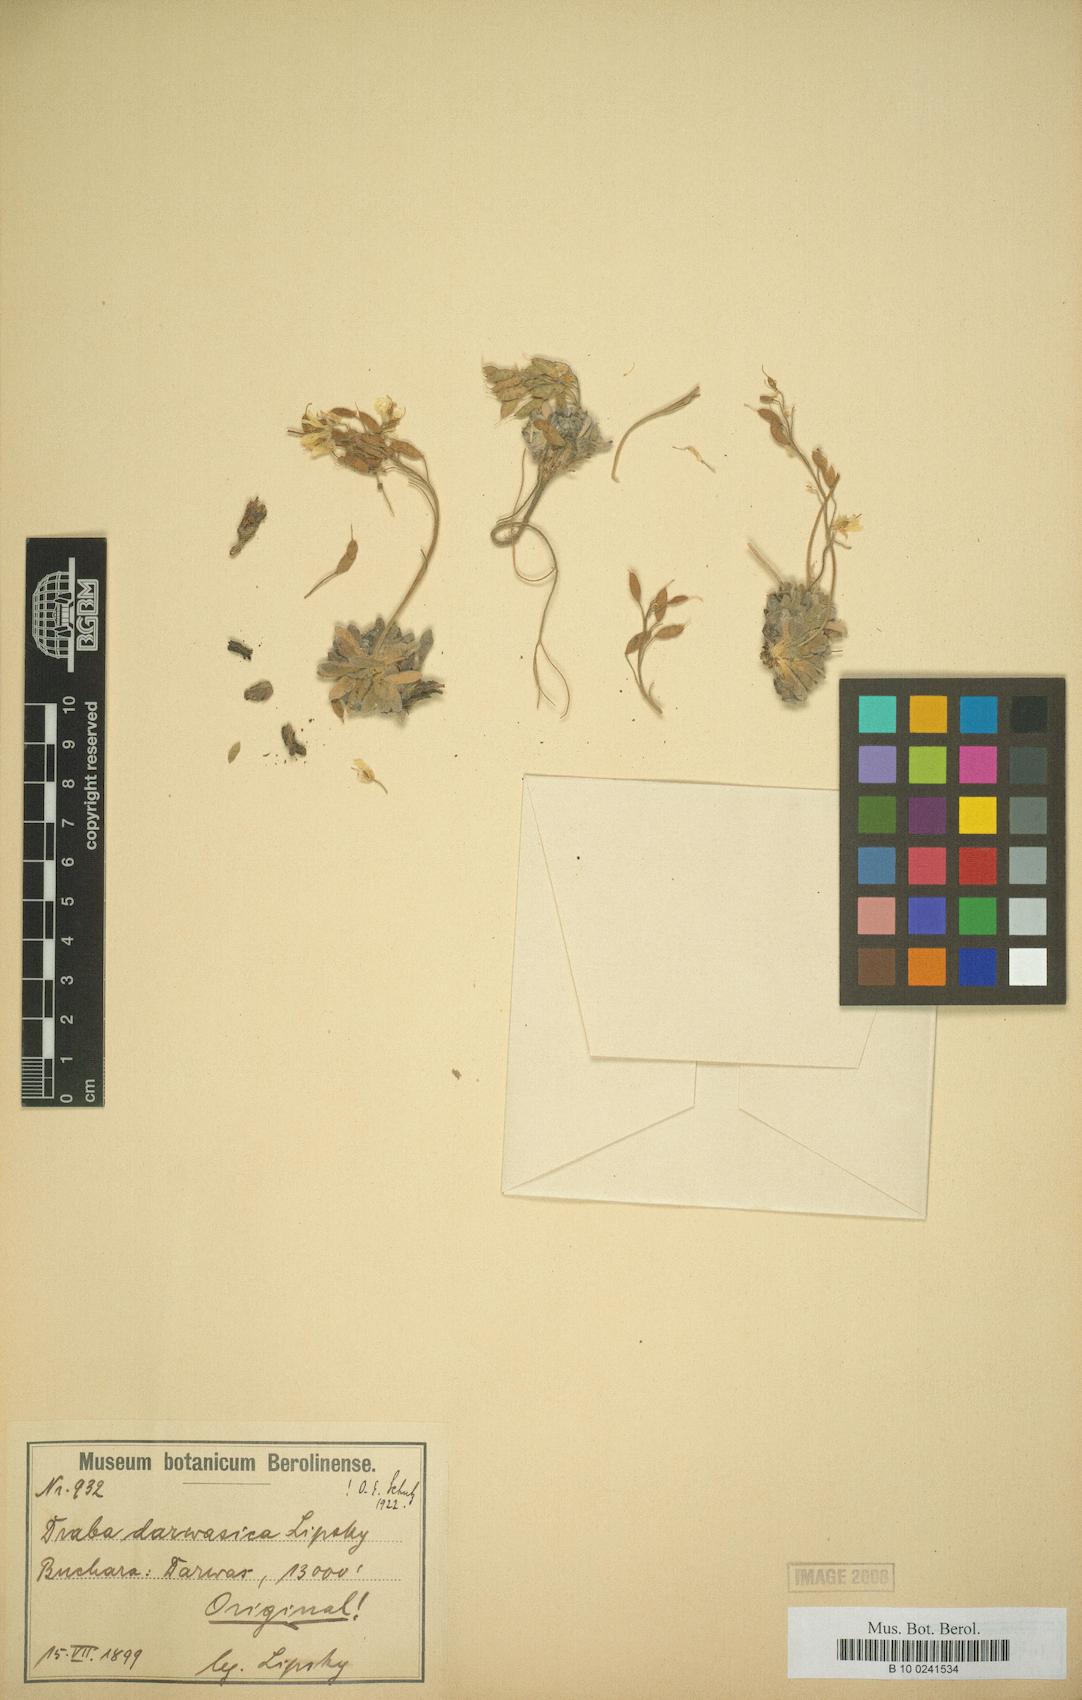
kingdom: Plantae
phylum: Tracheophyta
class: Magnoliopsida
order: Brassicales
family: Brassicaceae
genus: Draba
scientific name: Draba darwasica
